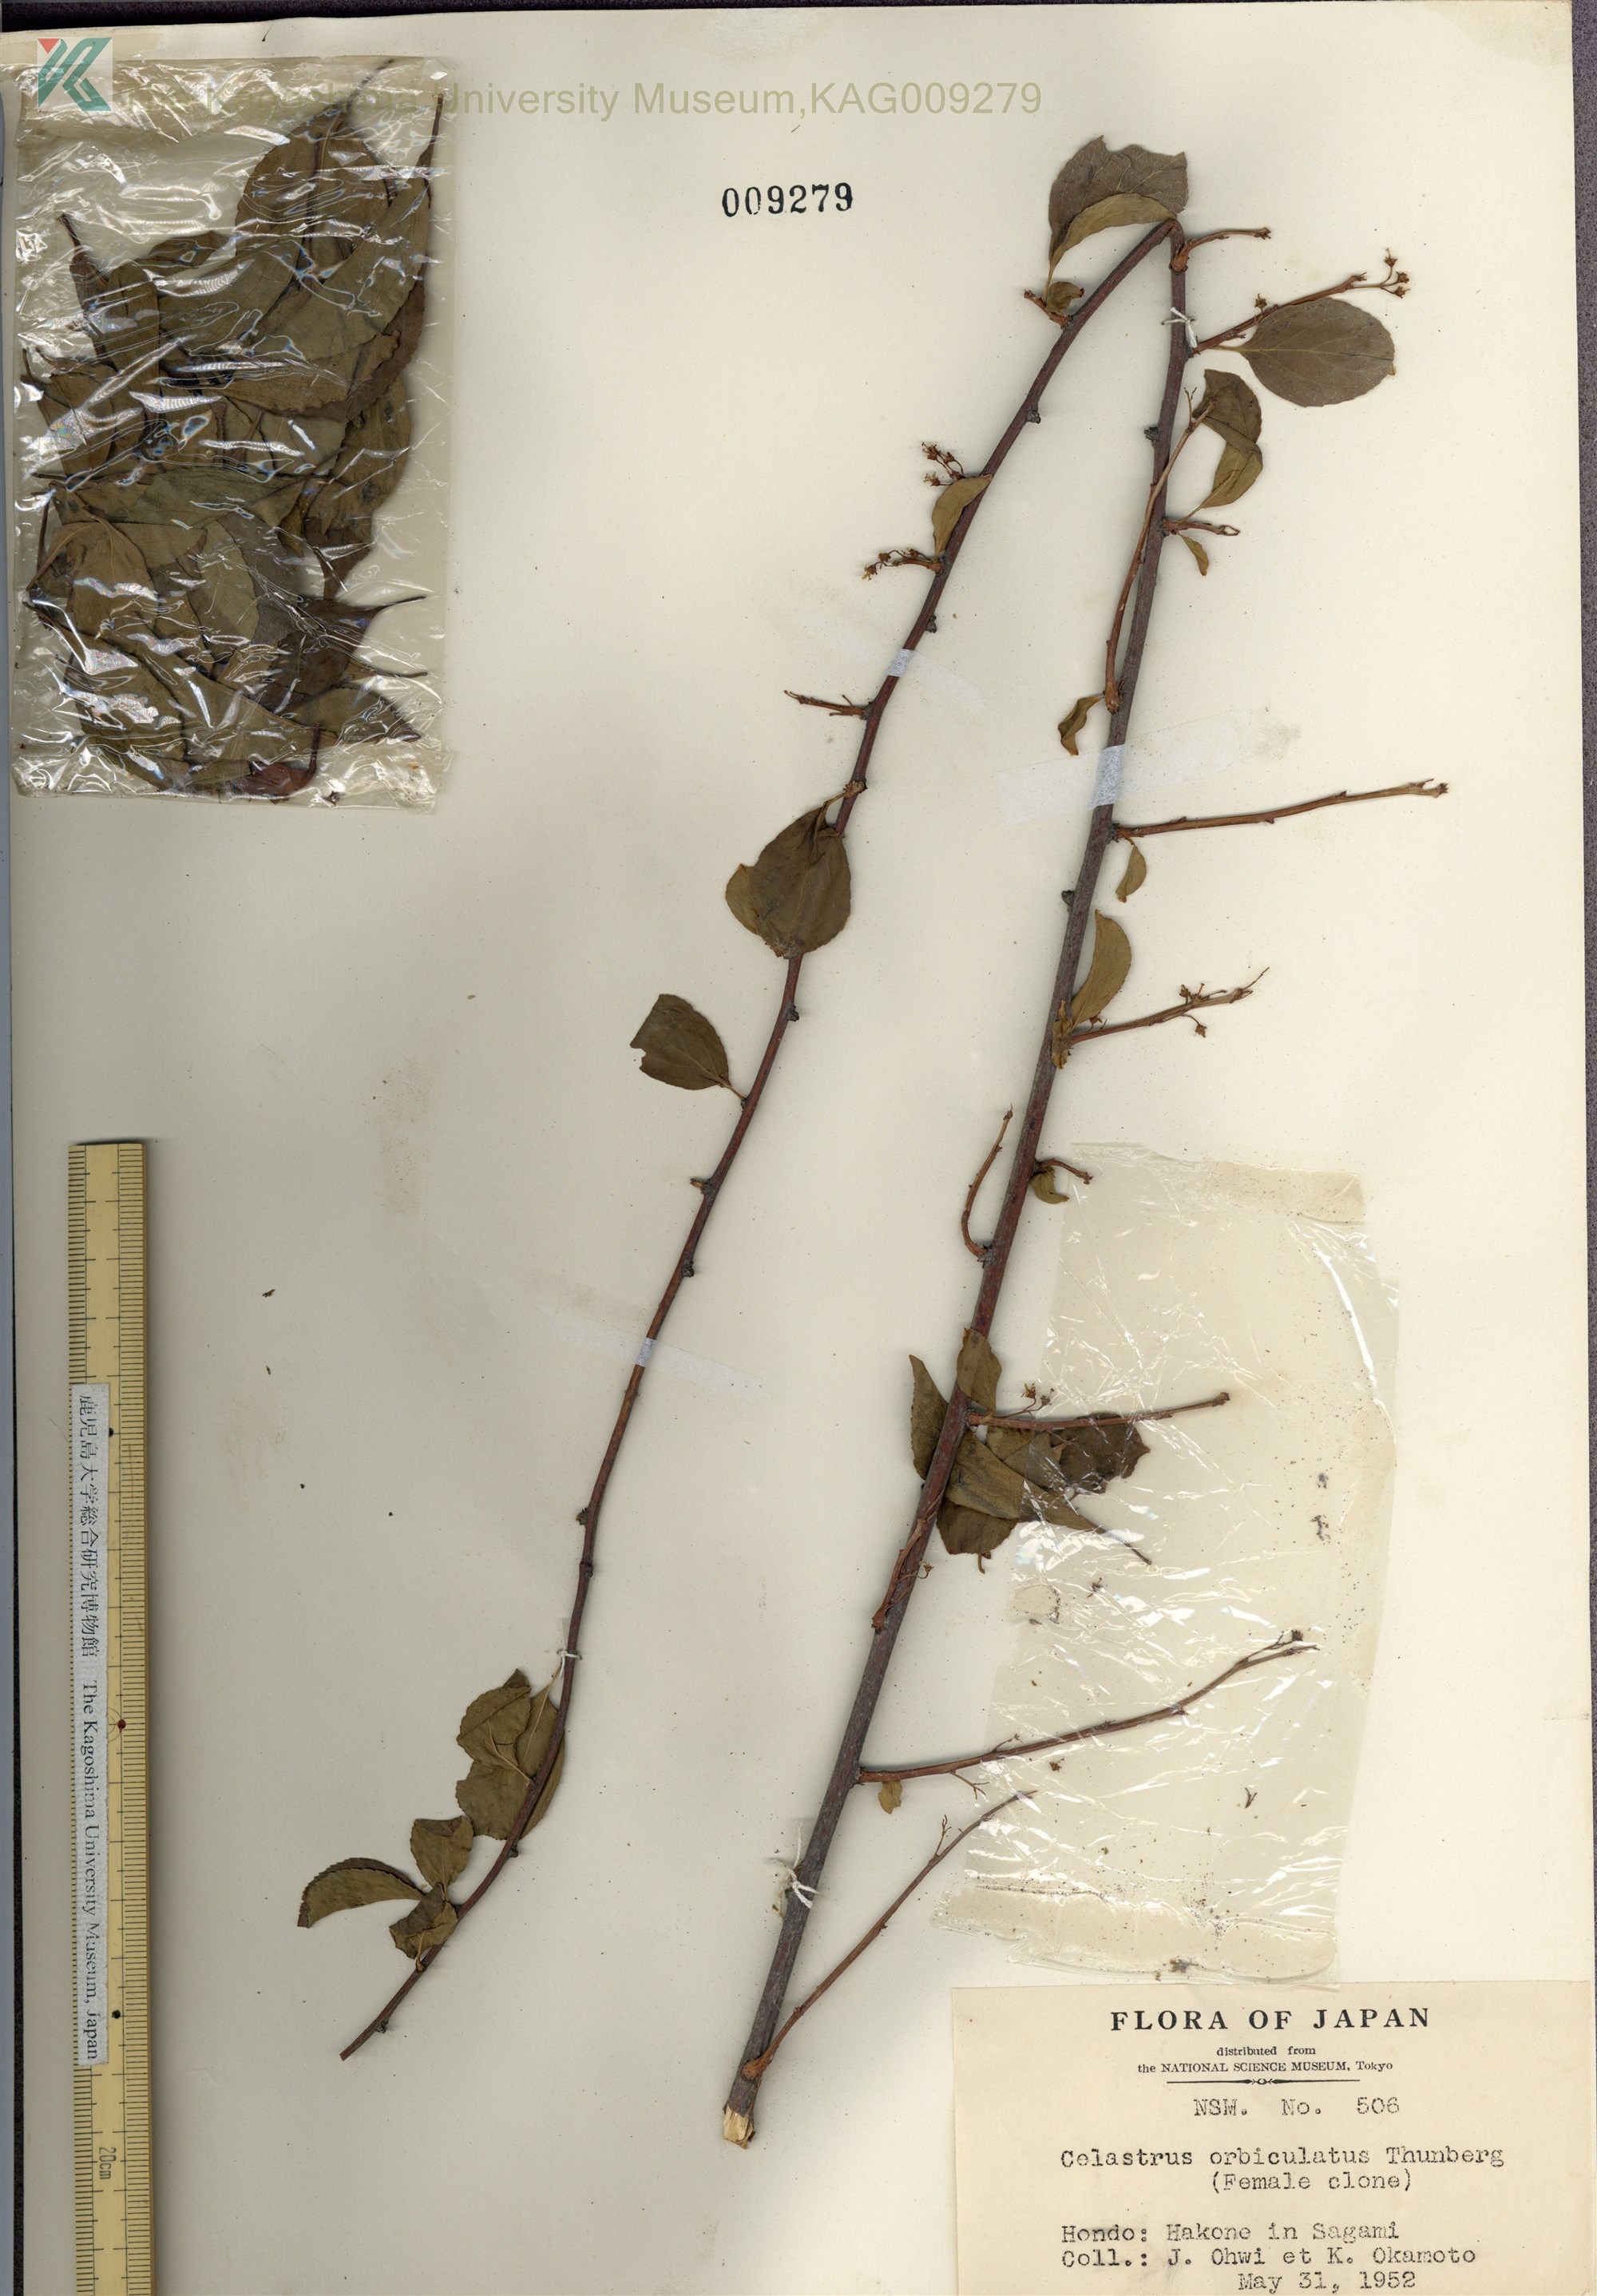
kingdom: Plantae
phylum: Tracheophyta
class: Magnoliopsida
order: Celastrales
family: Celastraceae
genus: Celastrus
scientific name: Celastrus orbiculatus
